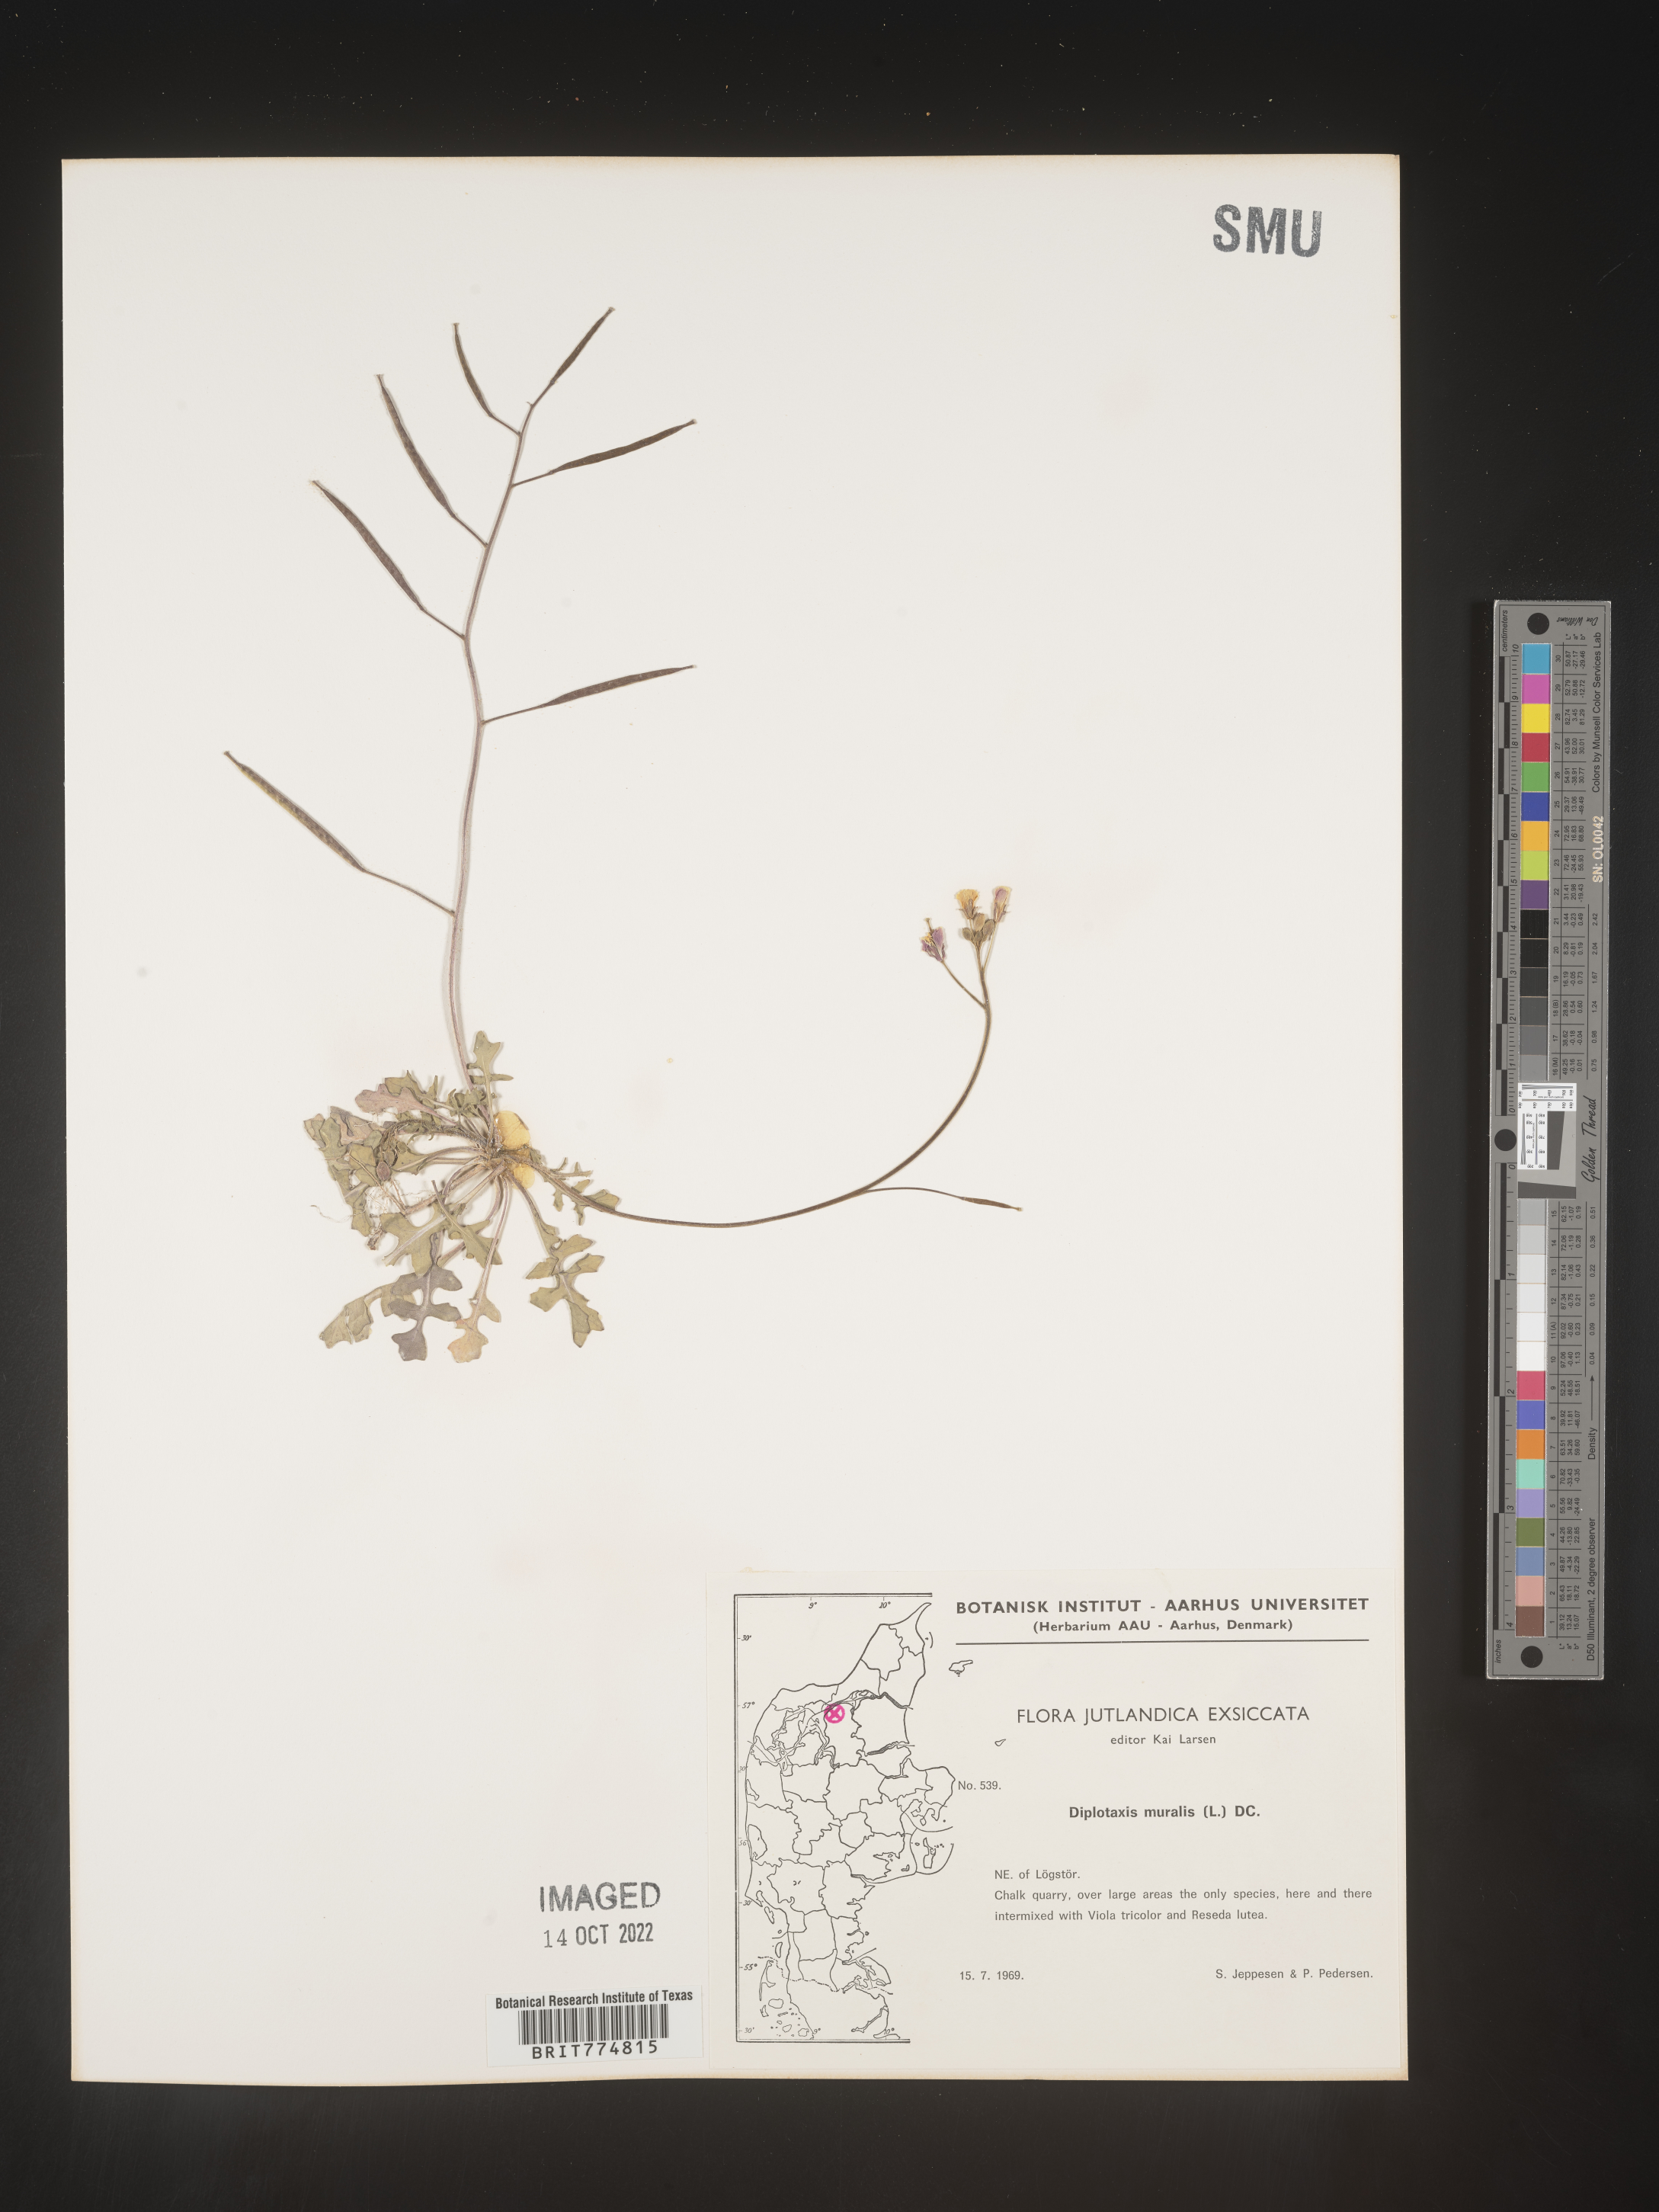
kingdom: Plantae
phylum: Tracheophyta
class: Magnoliopsida
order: Brassicales
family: Brassicaceae
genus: Diplotaxis
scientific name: Diplotaxis
